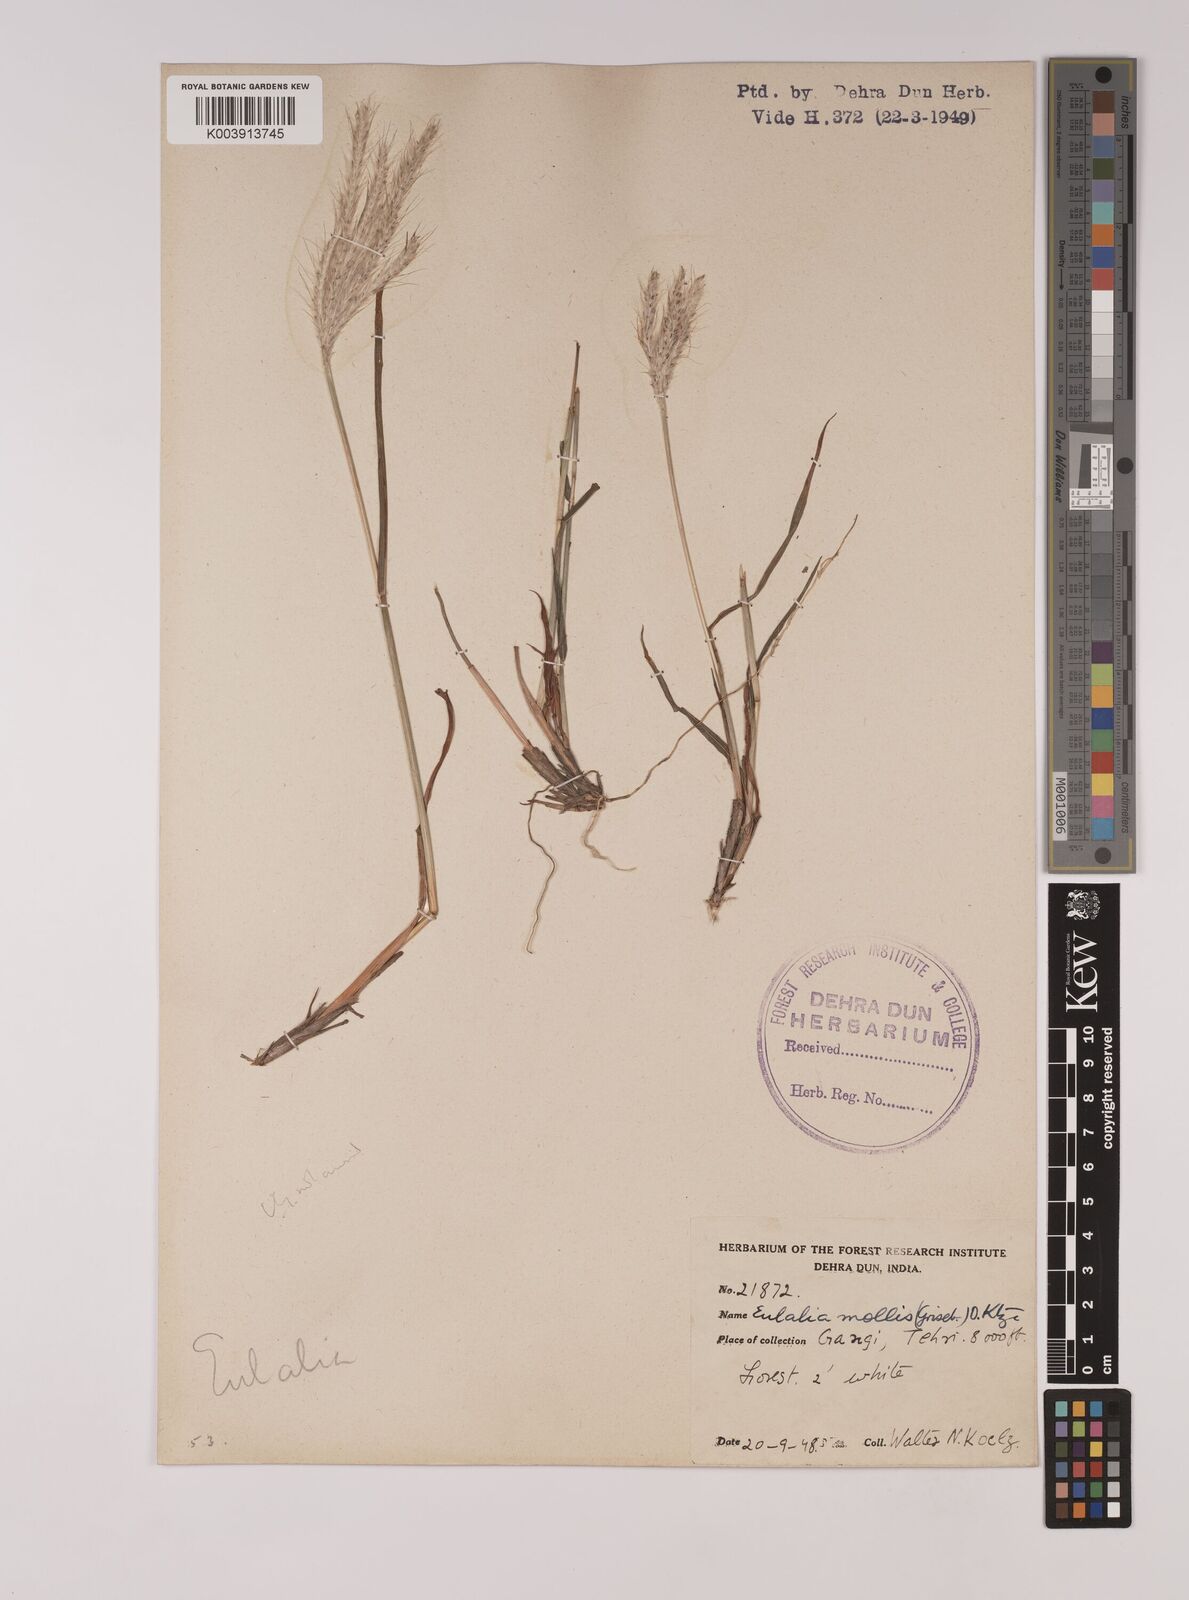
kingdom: Plantae
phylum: Tracheophyta
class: Liliopsida
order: Poales
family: Poaceae
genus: Eulalia
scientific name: Eulalia mollis
